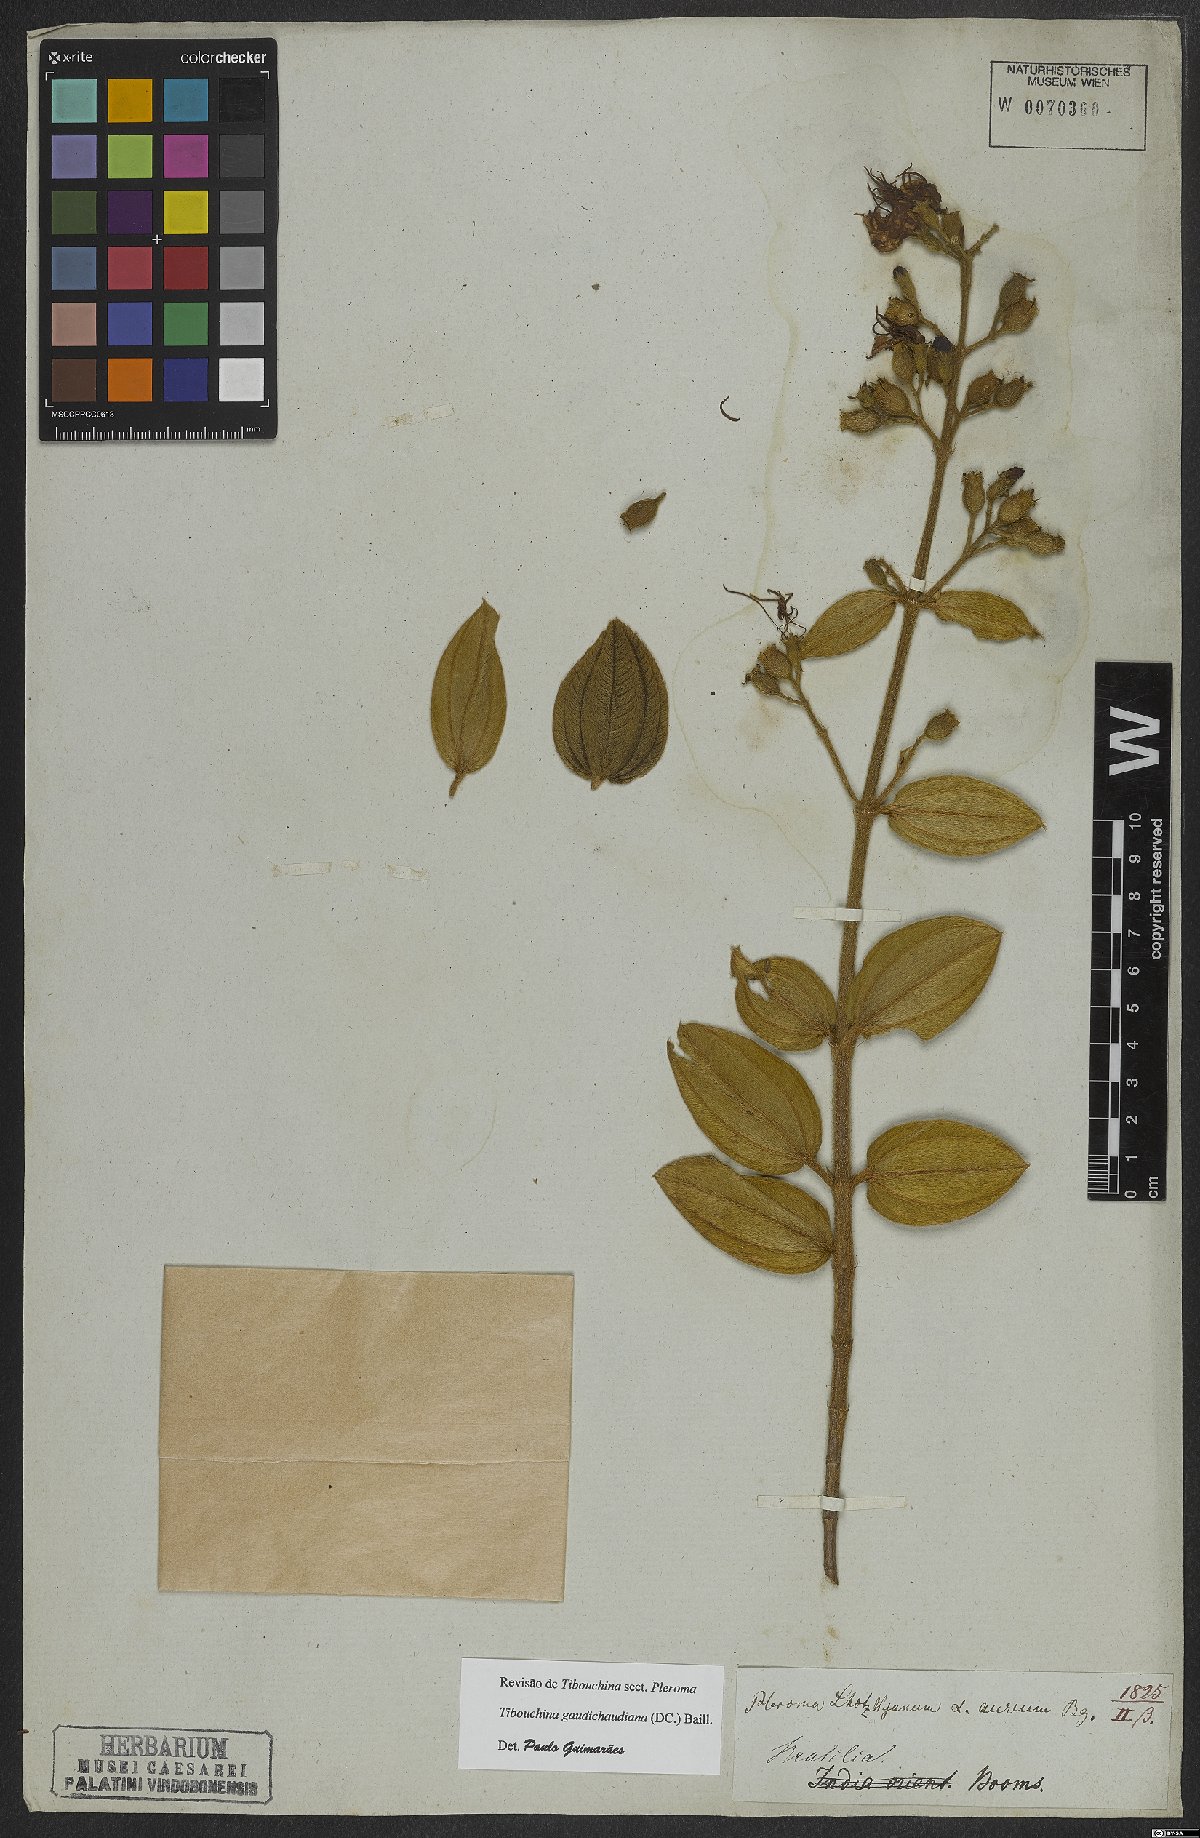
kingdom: Plantae
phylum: Tracheophyta
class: Magnoliopsida
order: Myrtales
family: Melastomataceae
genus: Pleroma
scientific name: Pleroma gaudichaudianum
